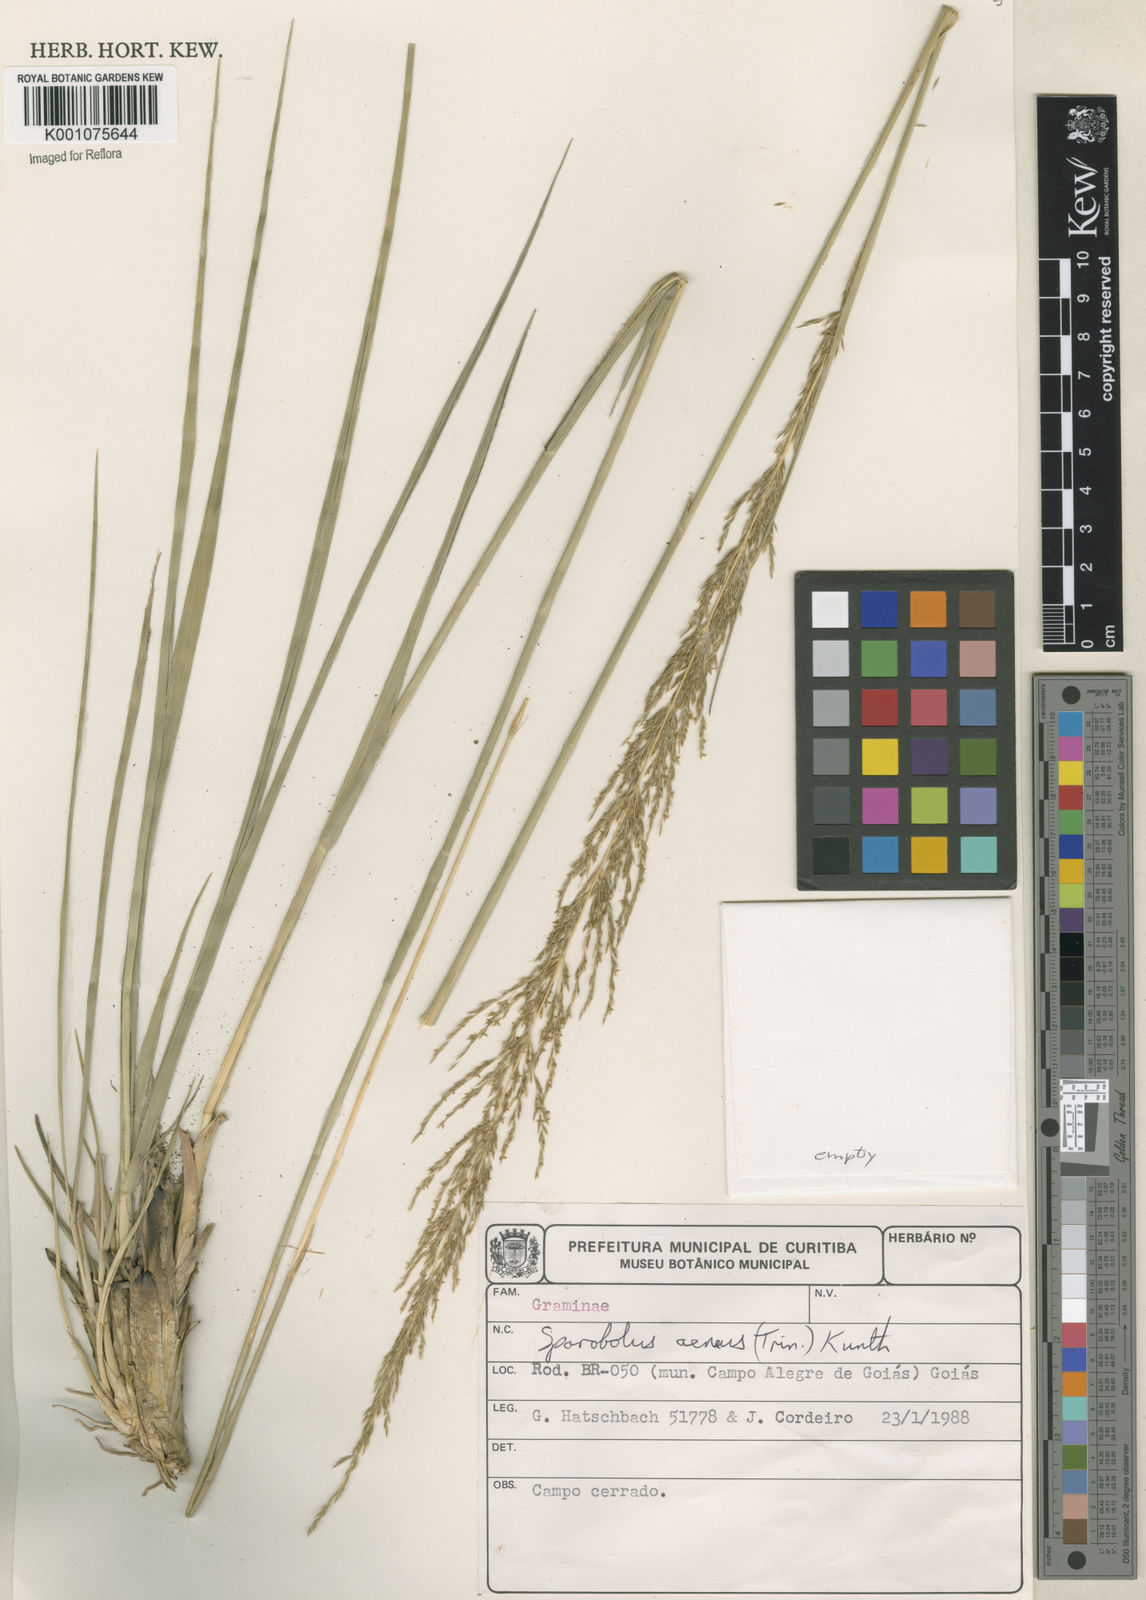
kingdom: Plantae
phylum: Tracheophyta
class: Liliopsida
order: Poales
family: Poaceae
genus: Sporobolus
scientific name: Sporobolus aeneus
